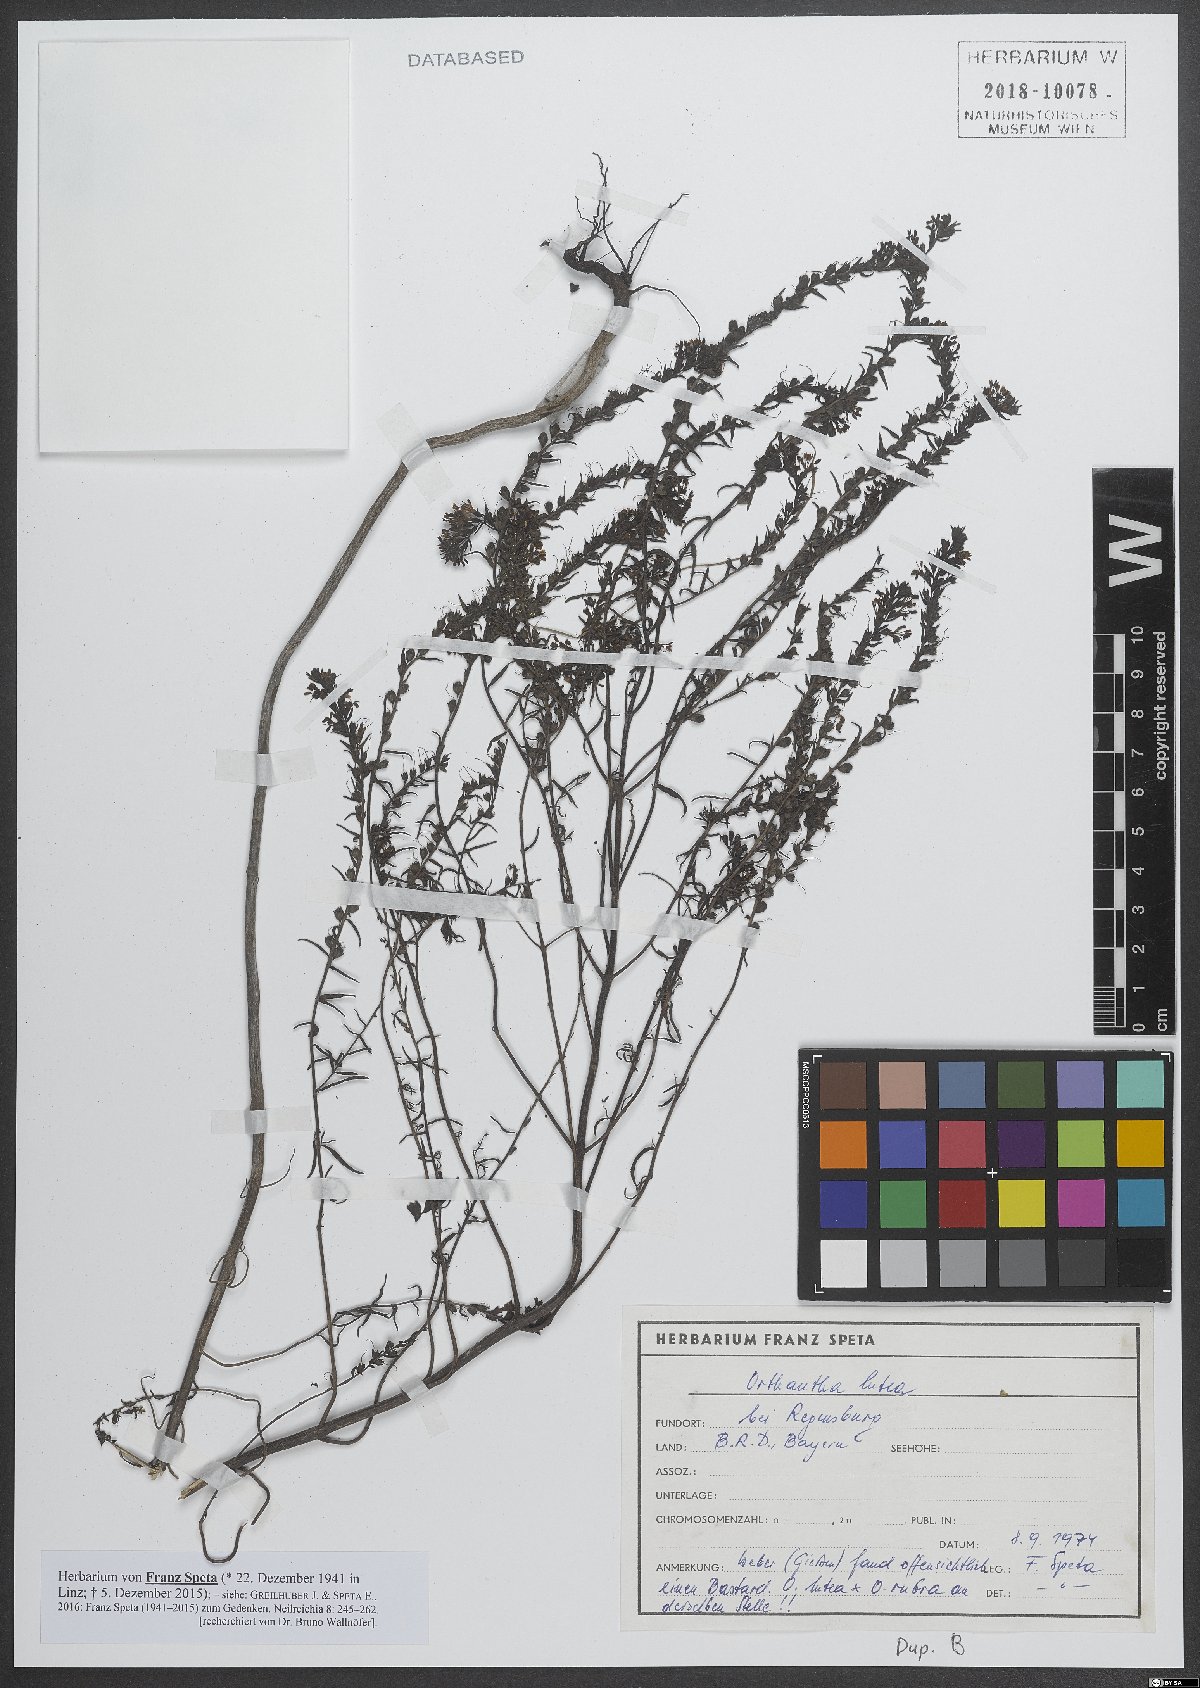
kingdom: Plantae
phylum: Tracheophyta
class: Magnoliopsida
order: Lamiales
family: Orobanchaceae
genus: Odontites
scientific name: Odontites luteus
